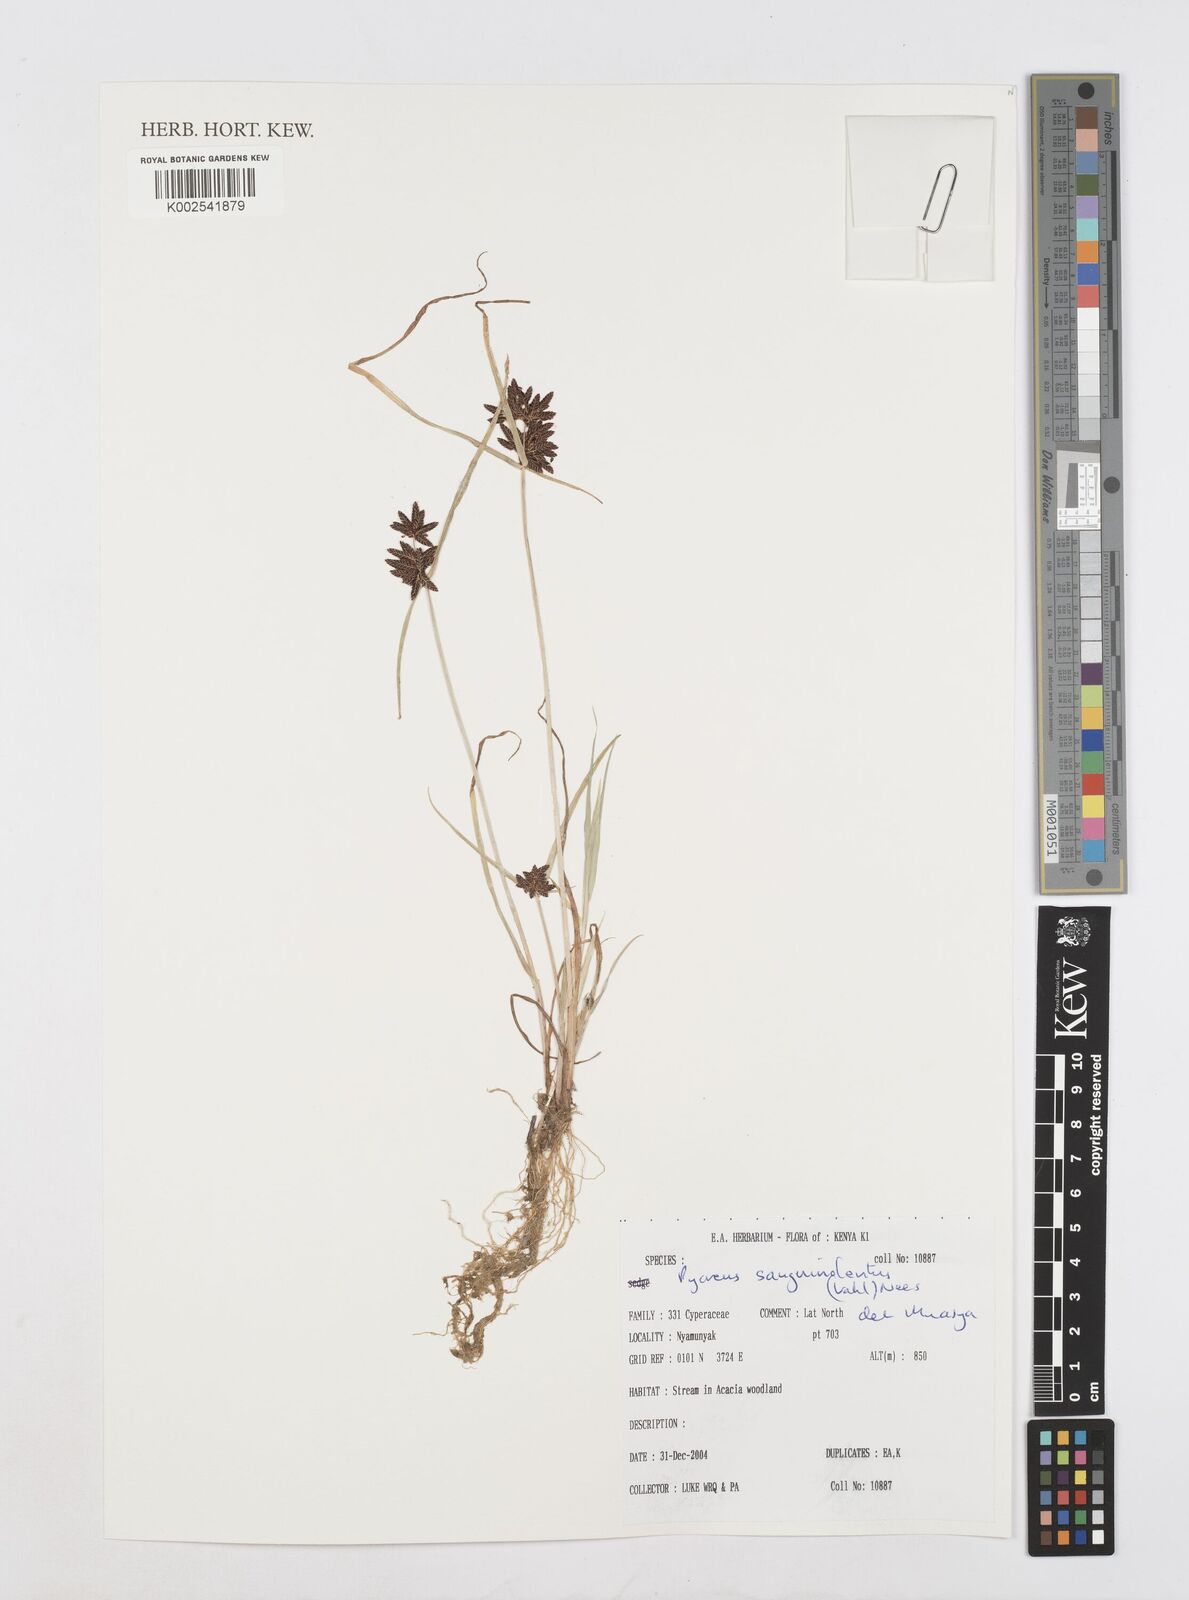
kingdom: Plantae
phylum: Tracheophyta
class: Liliopsida
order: Poales
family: Cyperaceae
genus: Cyperus
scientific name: Cyperus sanguinolentus
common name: Purpleglume flatsedge
